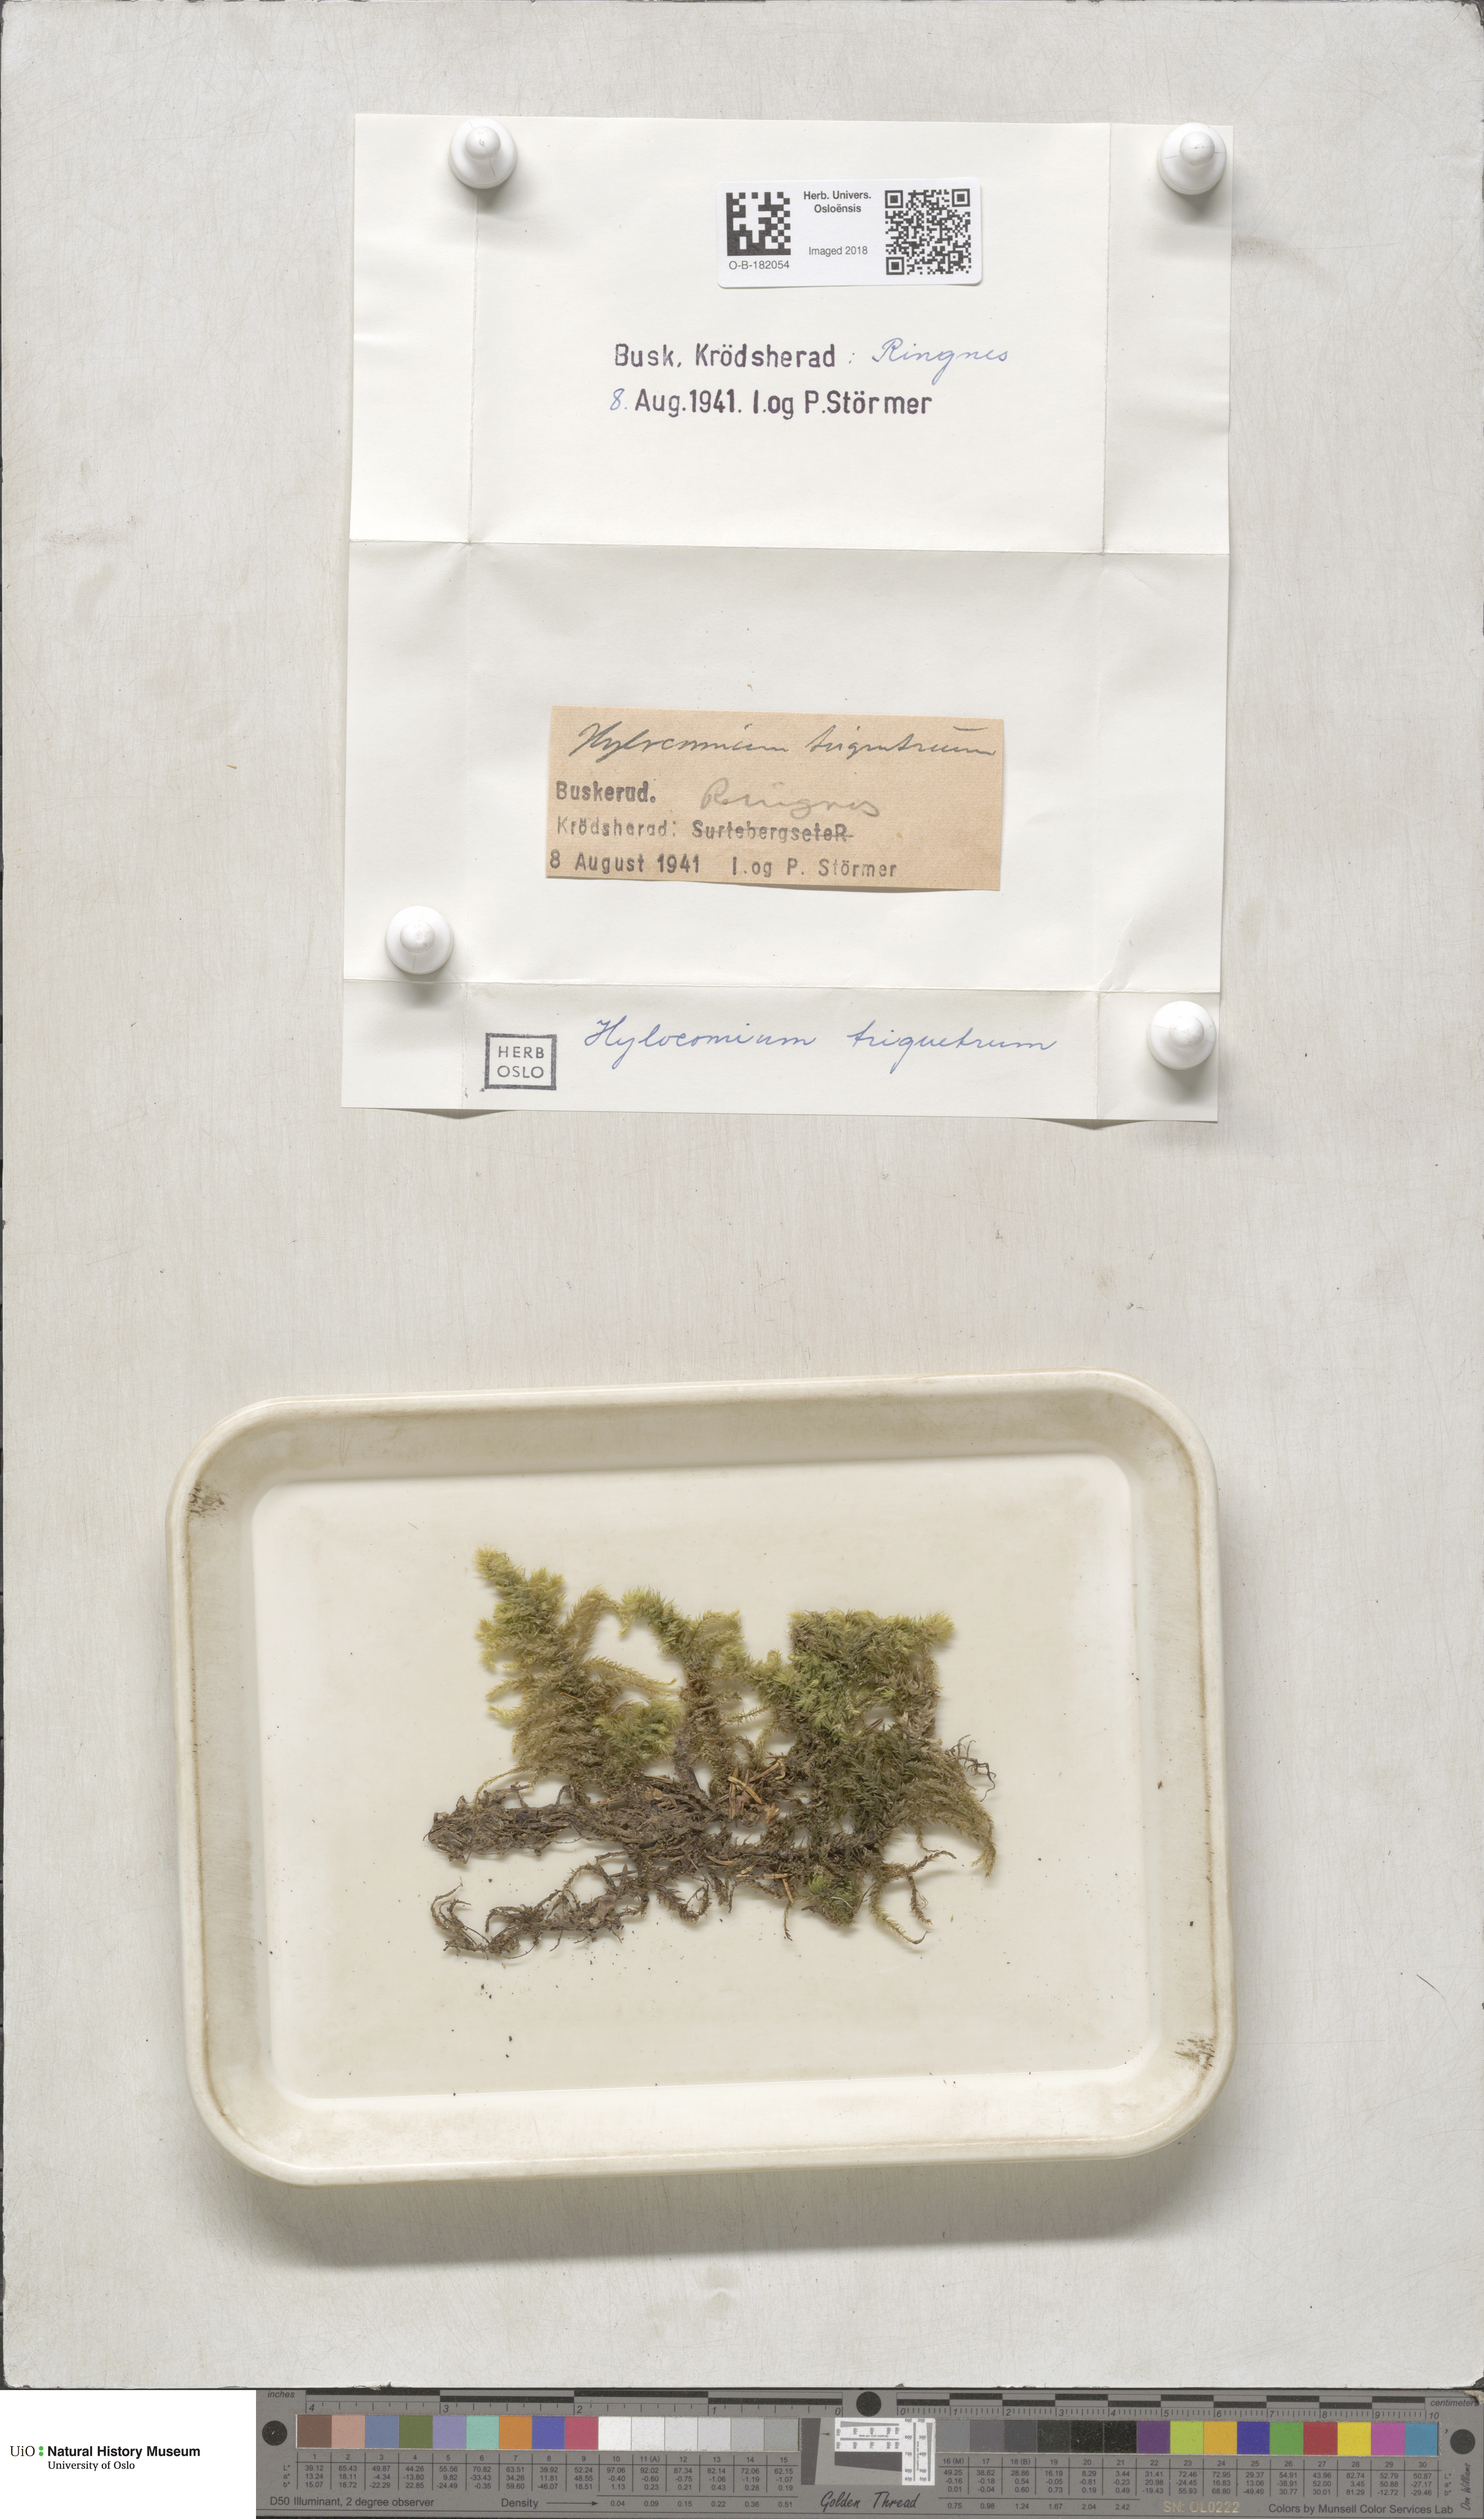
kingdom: Plantae
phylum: Bryophyta
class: Bryopsida
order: Hypnales
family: Hylocomiaceae
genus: Hylocomiadelphus
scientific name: Hylocomiadelphus triquetrus
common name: Rough goose neck moss
